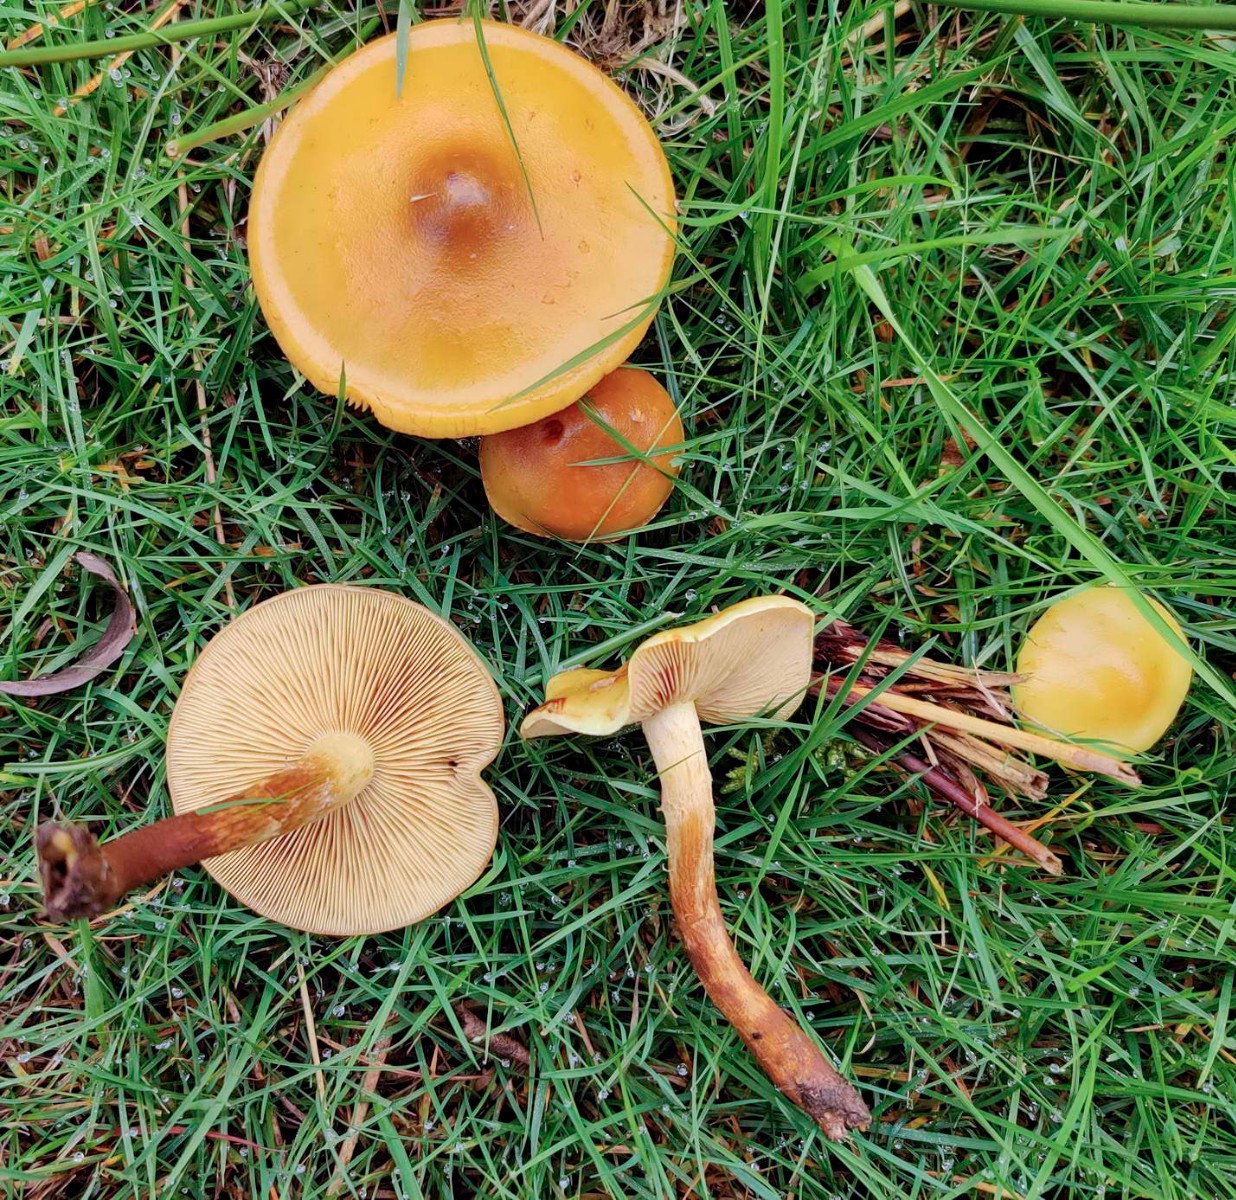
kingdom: Fungi
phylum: Basidiomycota
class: Agaricomycetes
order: Agaricales
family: Hymenogastraceae
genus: Flammula
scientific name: Flammula alnicola
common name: elle-skælhat
